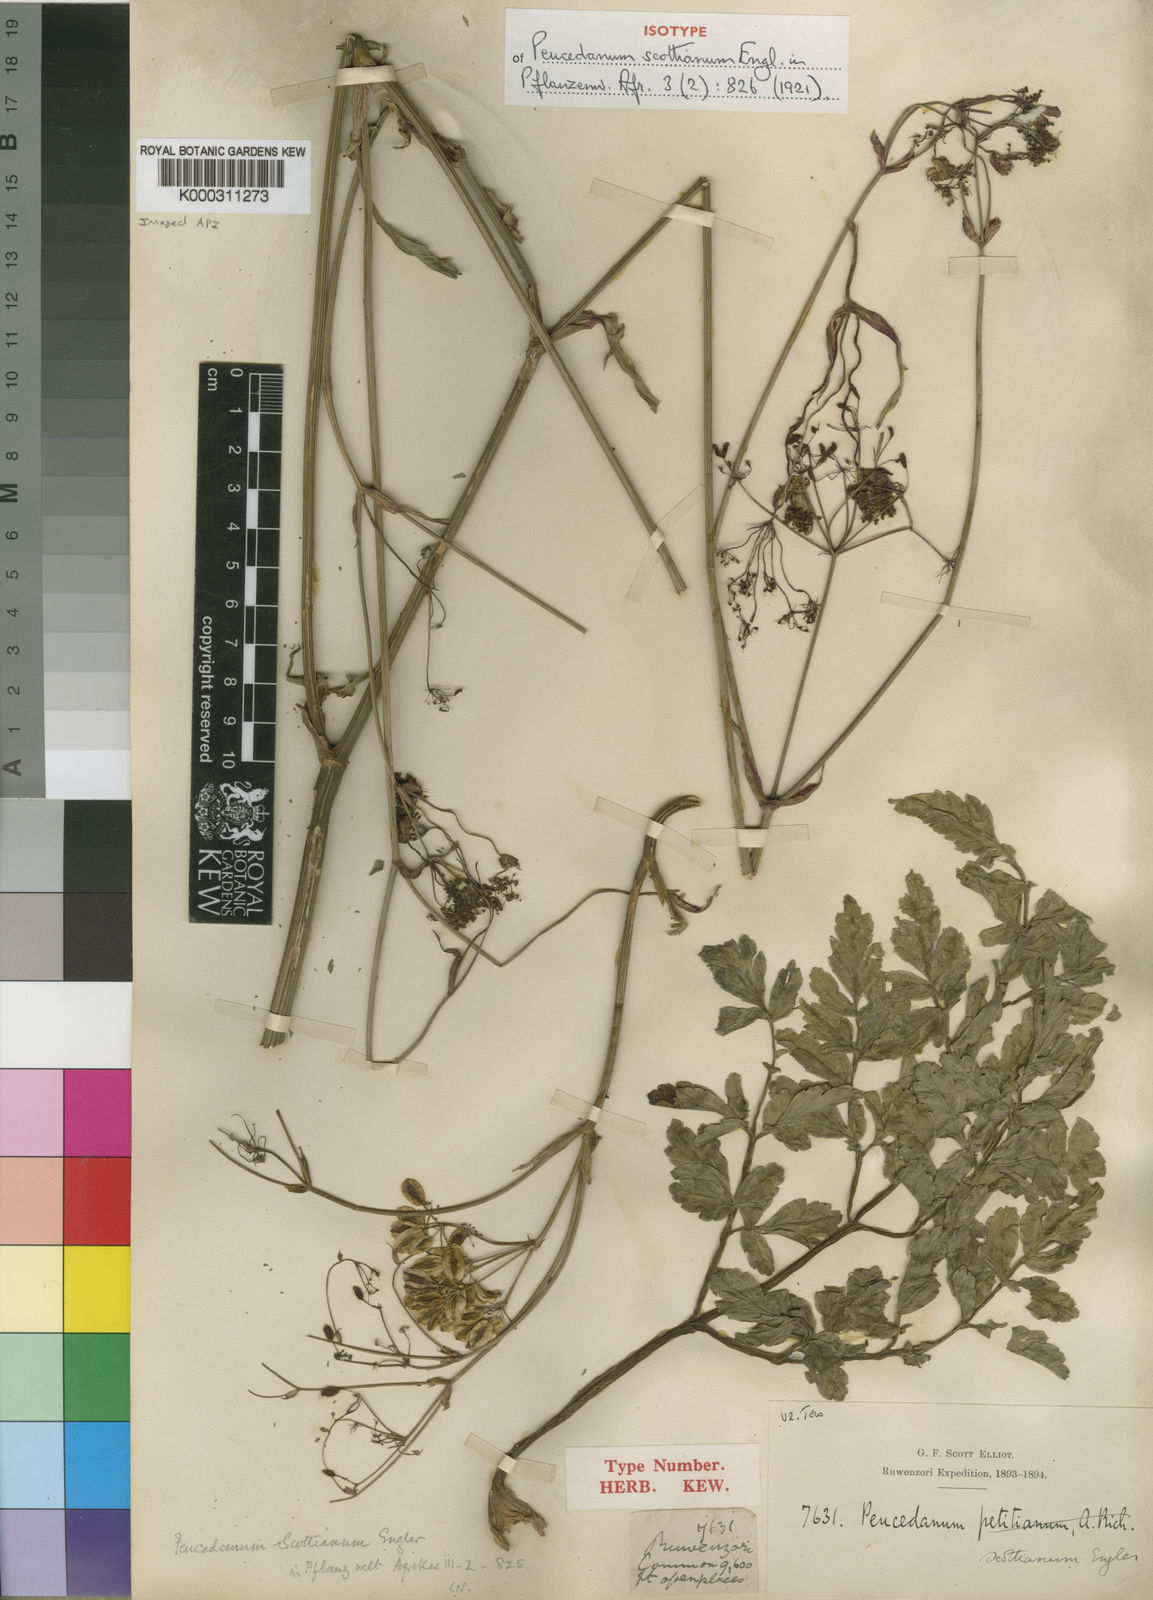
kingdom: Plantae
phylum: Tracheophyta
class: Magnoliopsida
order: Apiales
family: Apiaceae
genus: Afroligusticum
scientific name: Afroligusticum scottianum
